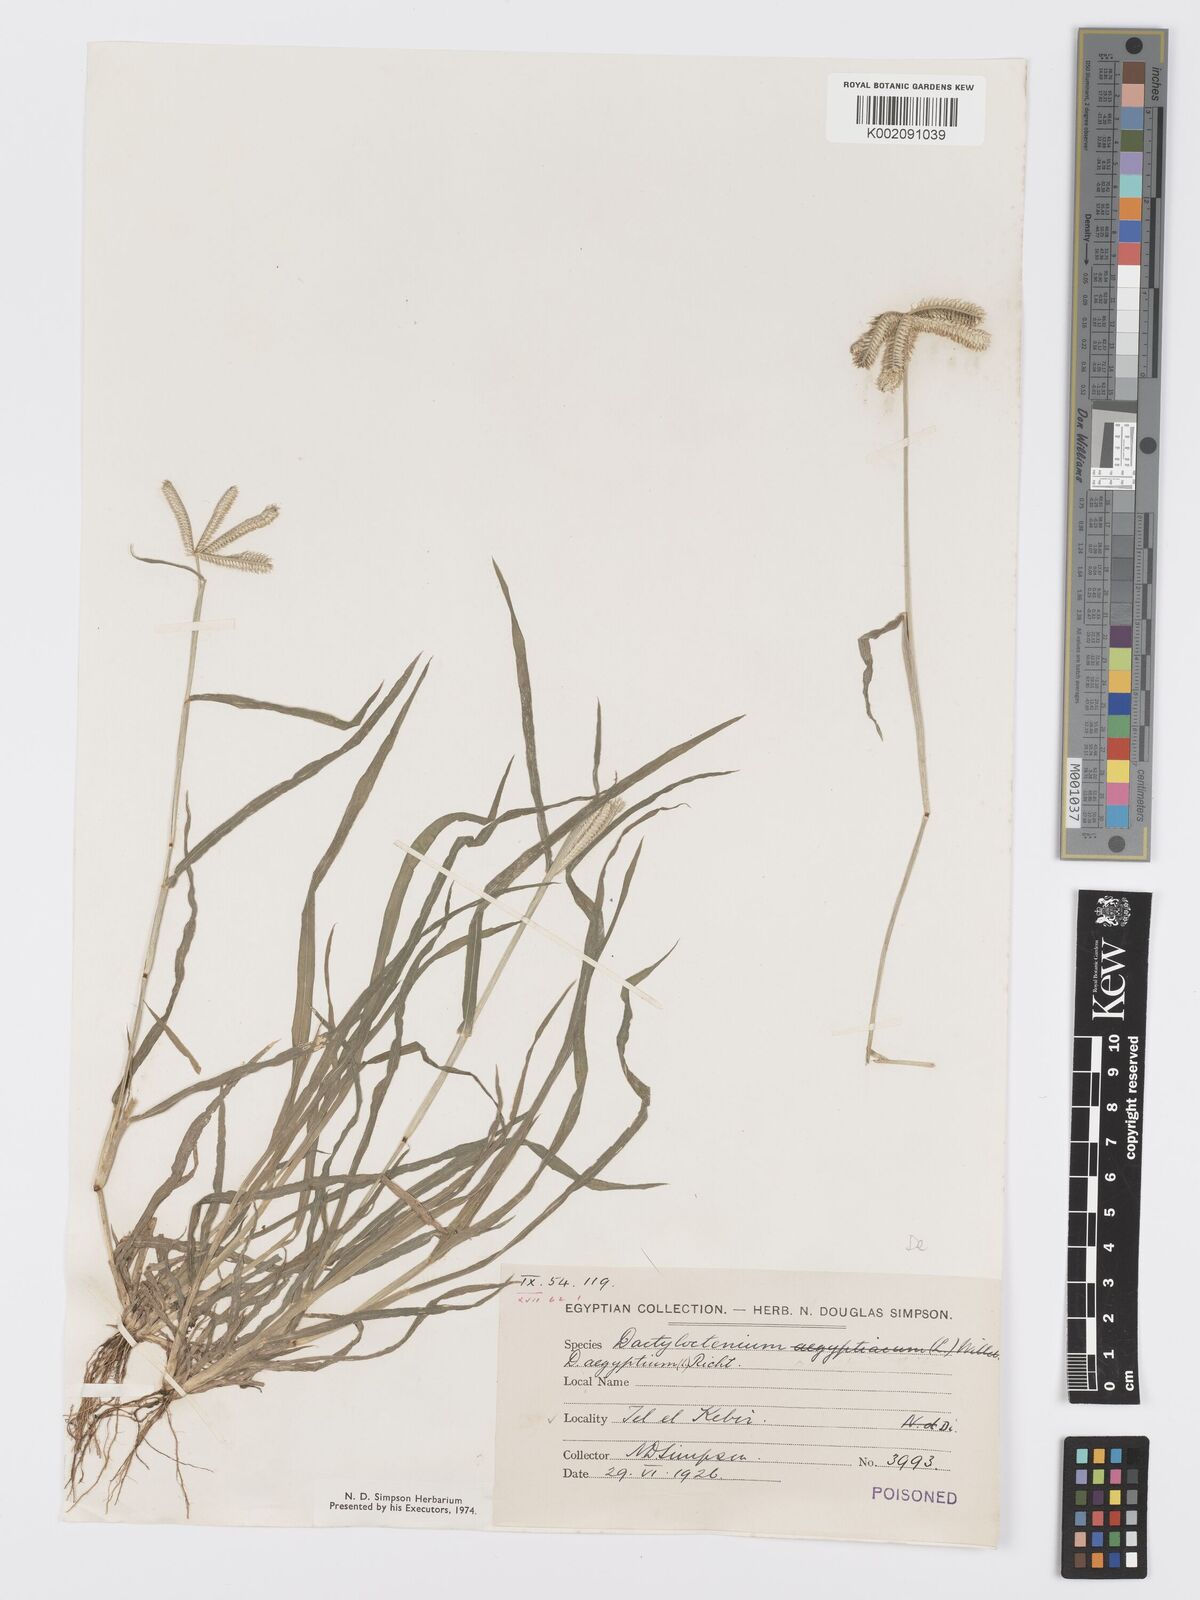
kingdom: Plantae
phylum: Tracheophyta
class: Liliopsida
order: Poales
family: Poaceae
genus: Dactyloctenium
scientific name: Dactyloctenium aegyptium
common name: Egyptian grass
